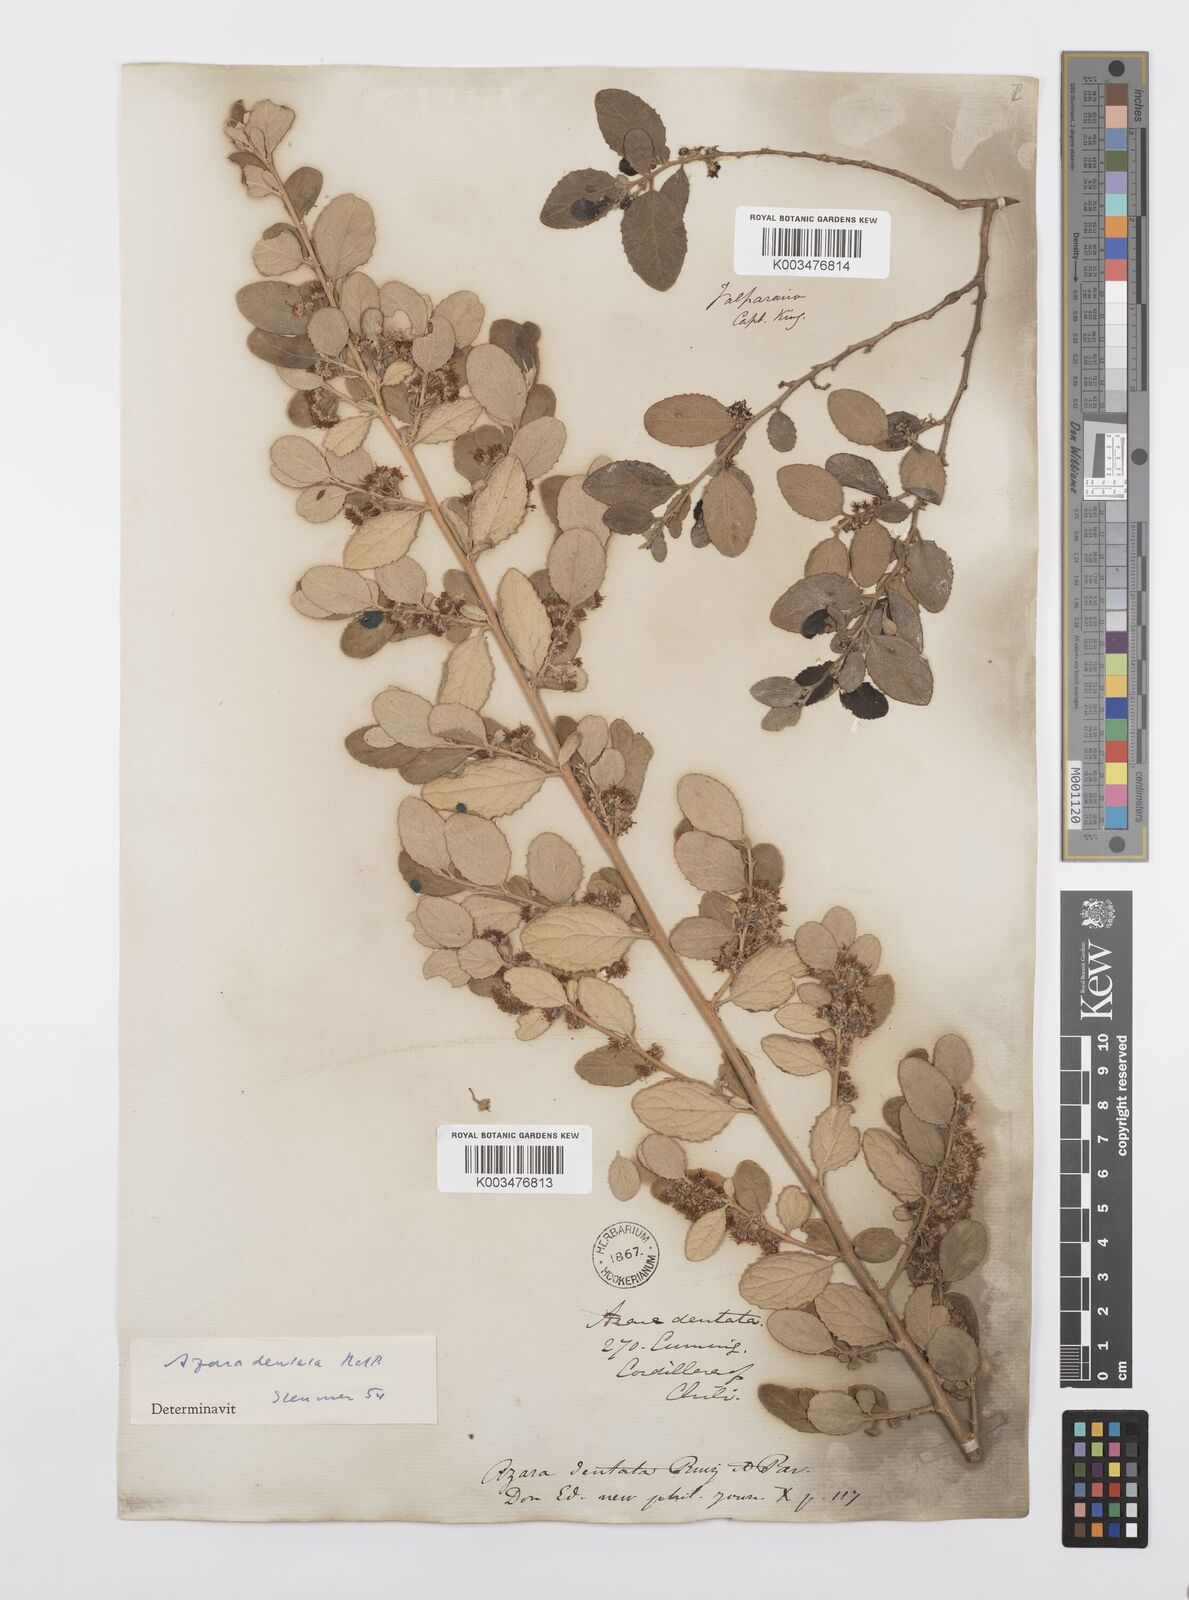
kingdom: Plantae
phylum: Tracheophyta
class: Magnoliopsida
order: Malpighiales
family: Salicaceae
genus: Azara
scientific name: Azara dentata
